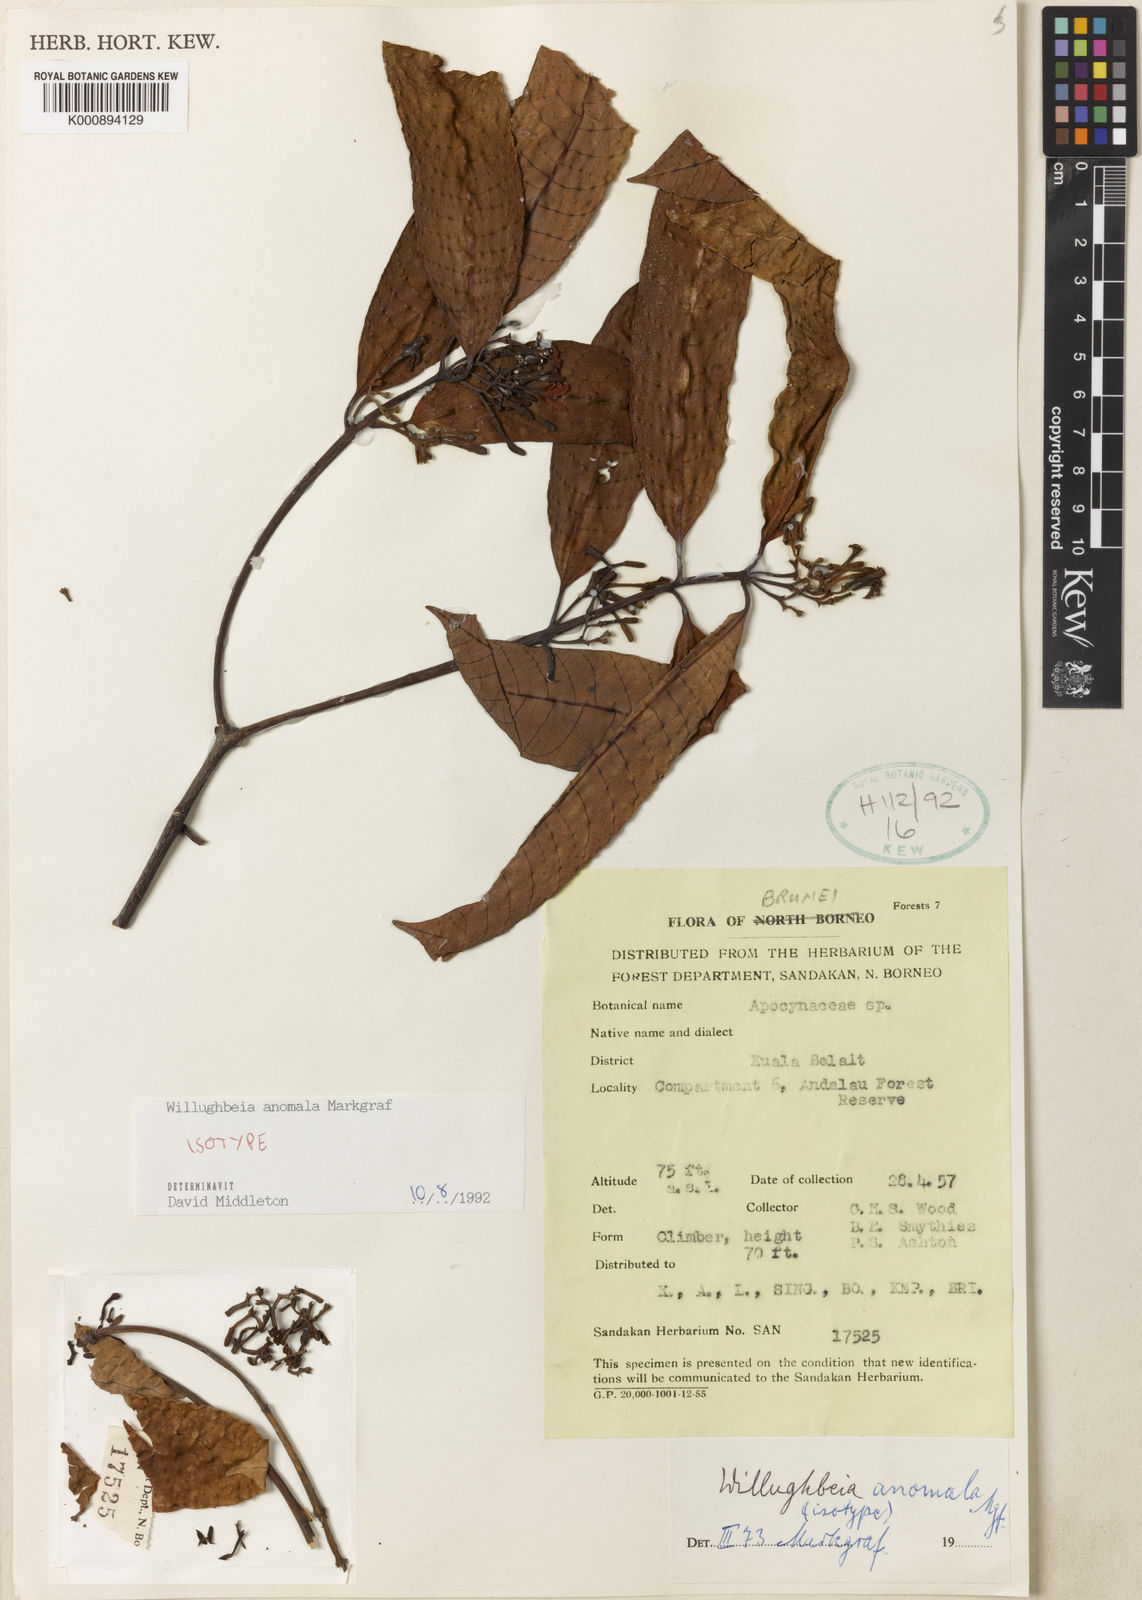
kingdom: Plantae
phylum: Tracheophyta
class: Magnoliopsida
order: Gentianales
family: Apocynaceae
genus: Willughbeia
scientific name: Willughbeia anomala
